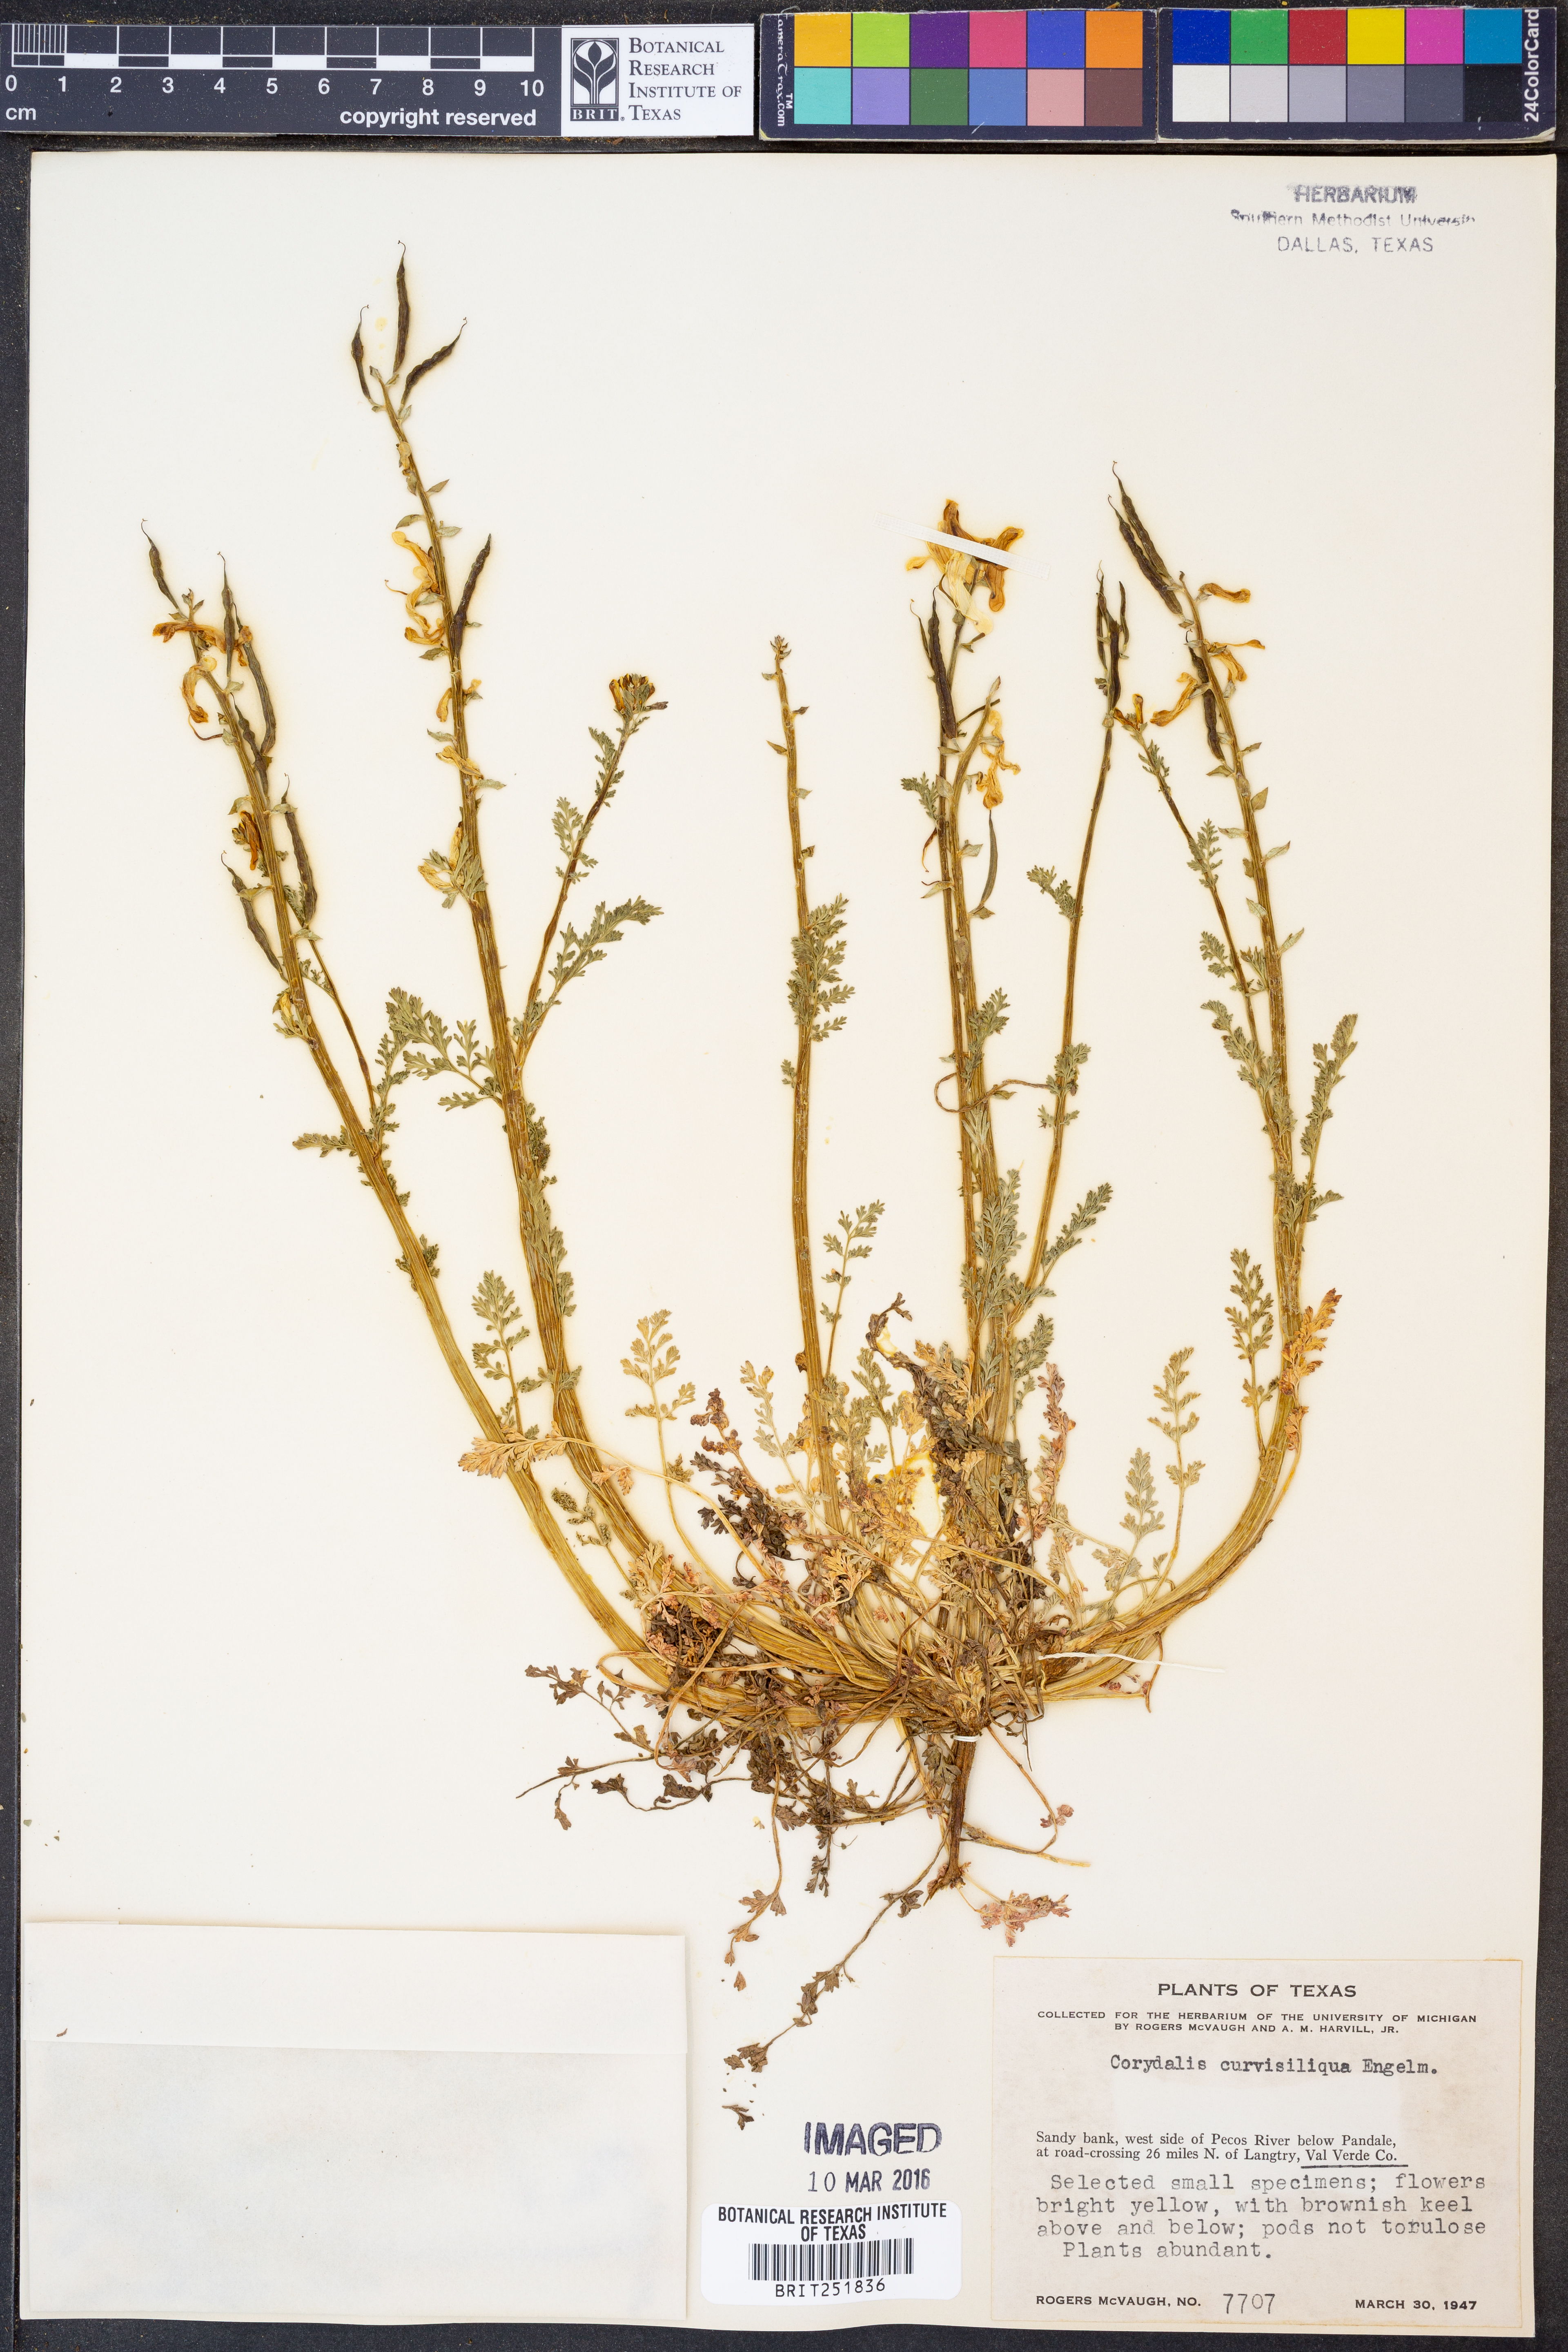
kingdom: Plantae
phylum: Tracheophyta
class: Magnoliopsida
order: Ranunculales
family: Papaveraceae
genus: Corydalis
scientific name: Corydalis curvisiliqua
